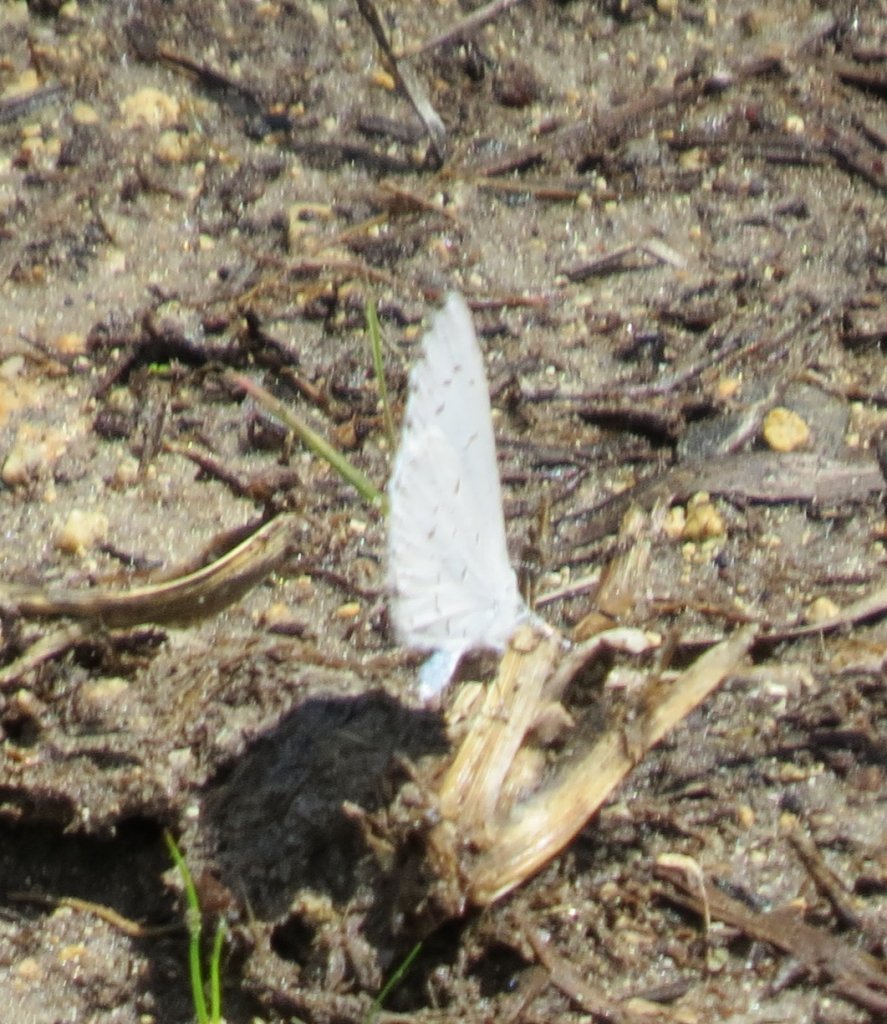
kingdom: Animalia
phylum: Arthropoda
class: Insecta
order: Lepidoptera
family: Lycaenidae
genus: Cyaniris
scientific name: Cyaniris neglecta
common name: Summer Azure
